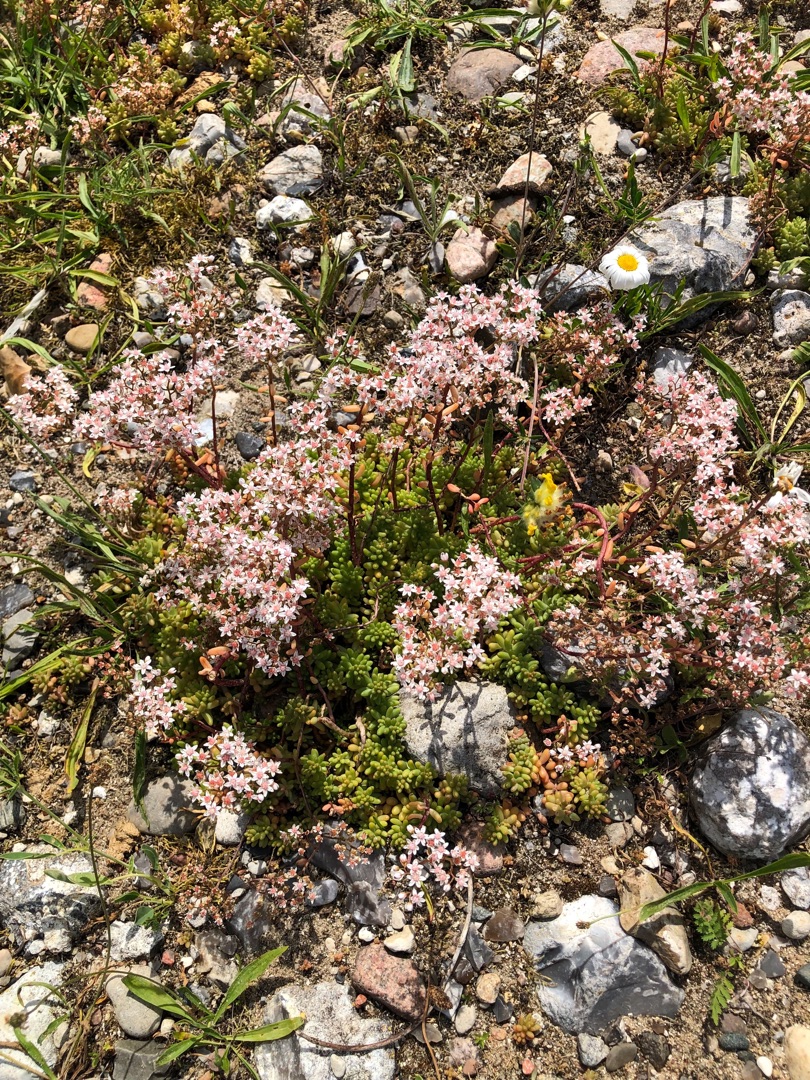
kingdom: Plantae
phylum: Tracheophyta
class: Magnoliopsida
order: Saxifragales
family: Crassulaceae
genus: Sedum
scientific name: Sedum album
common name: Hvid stenurt
